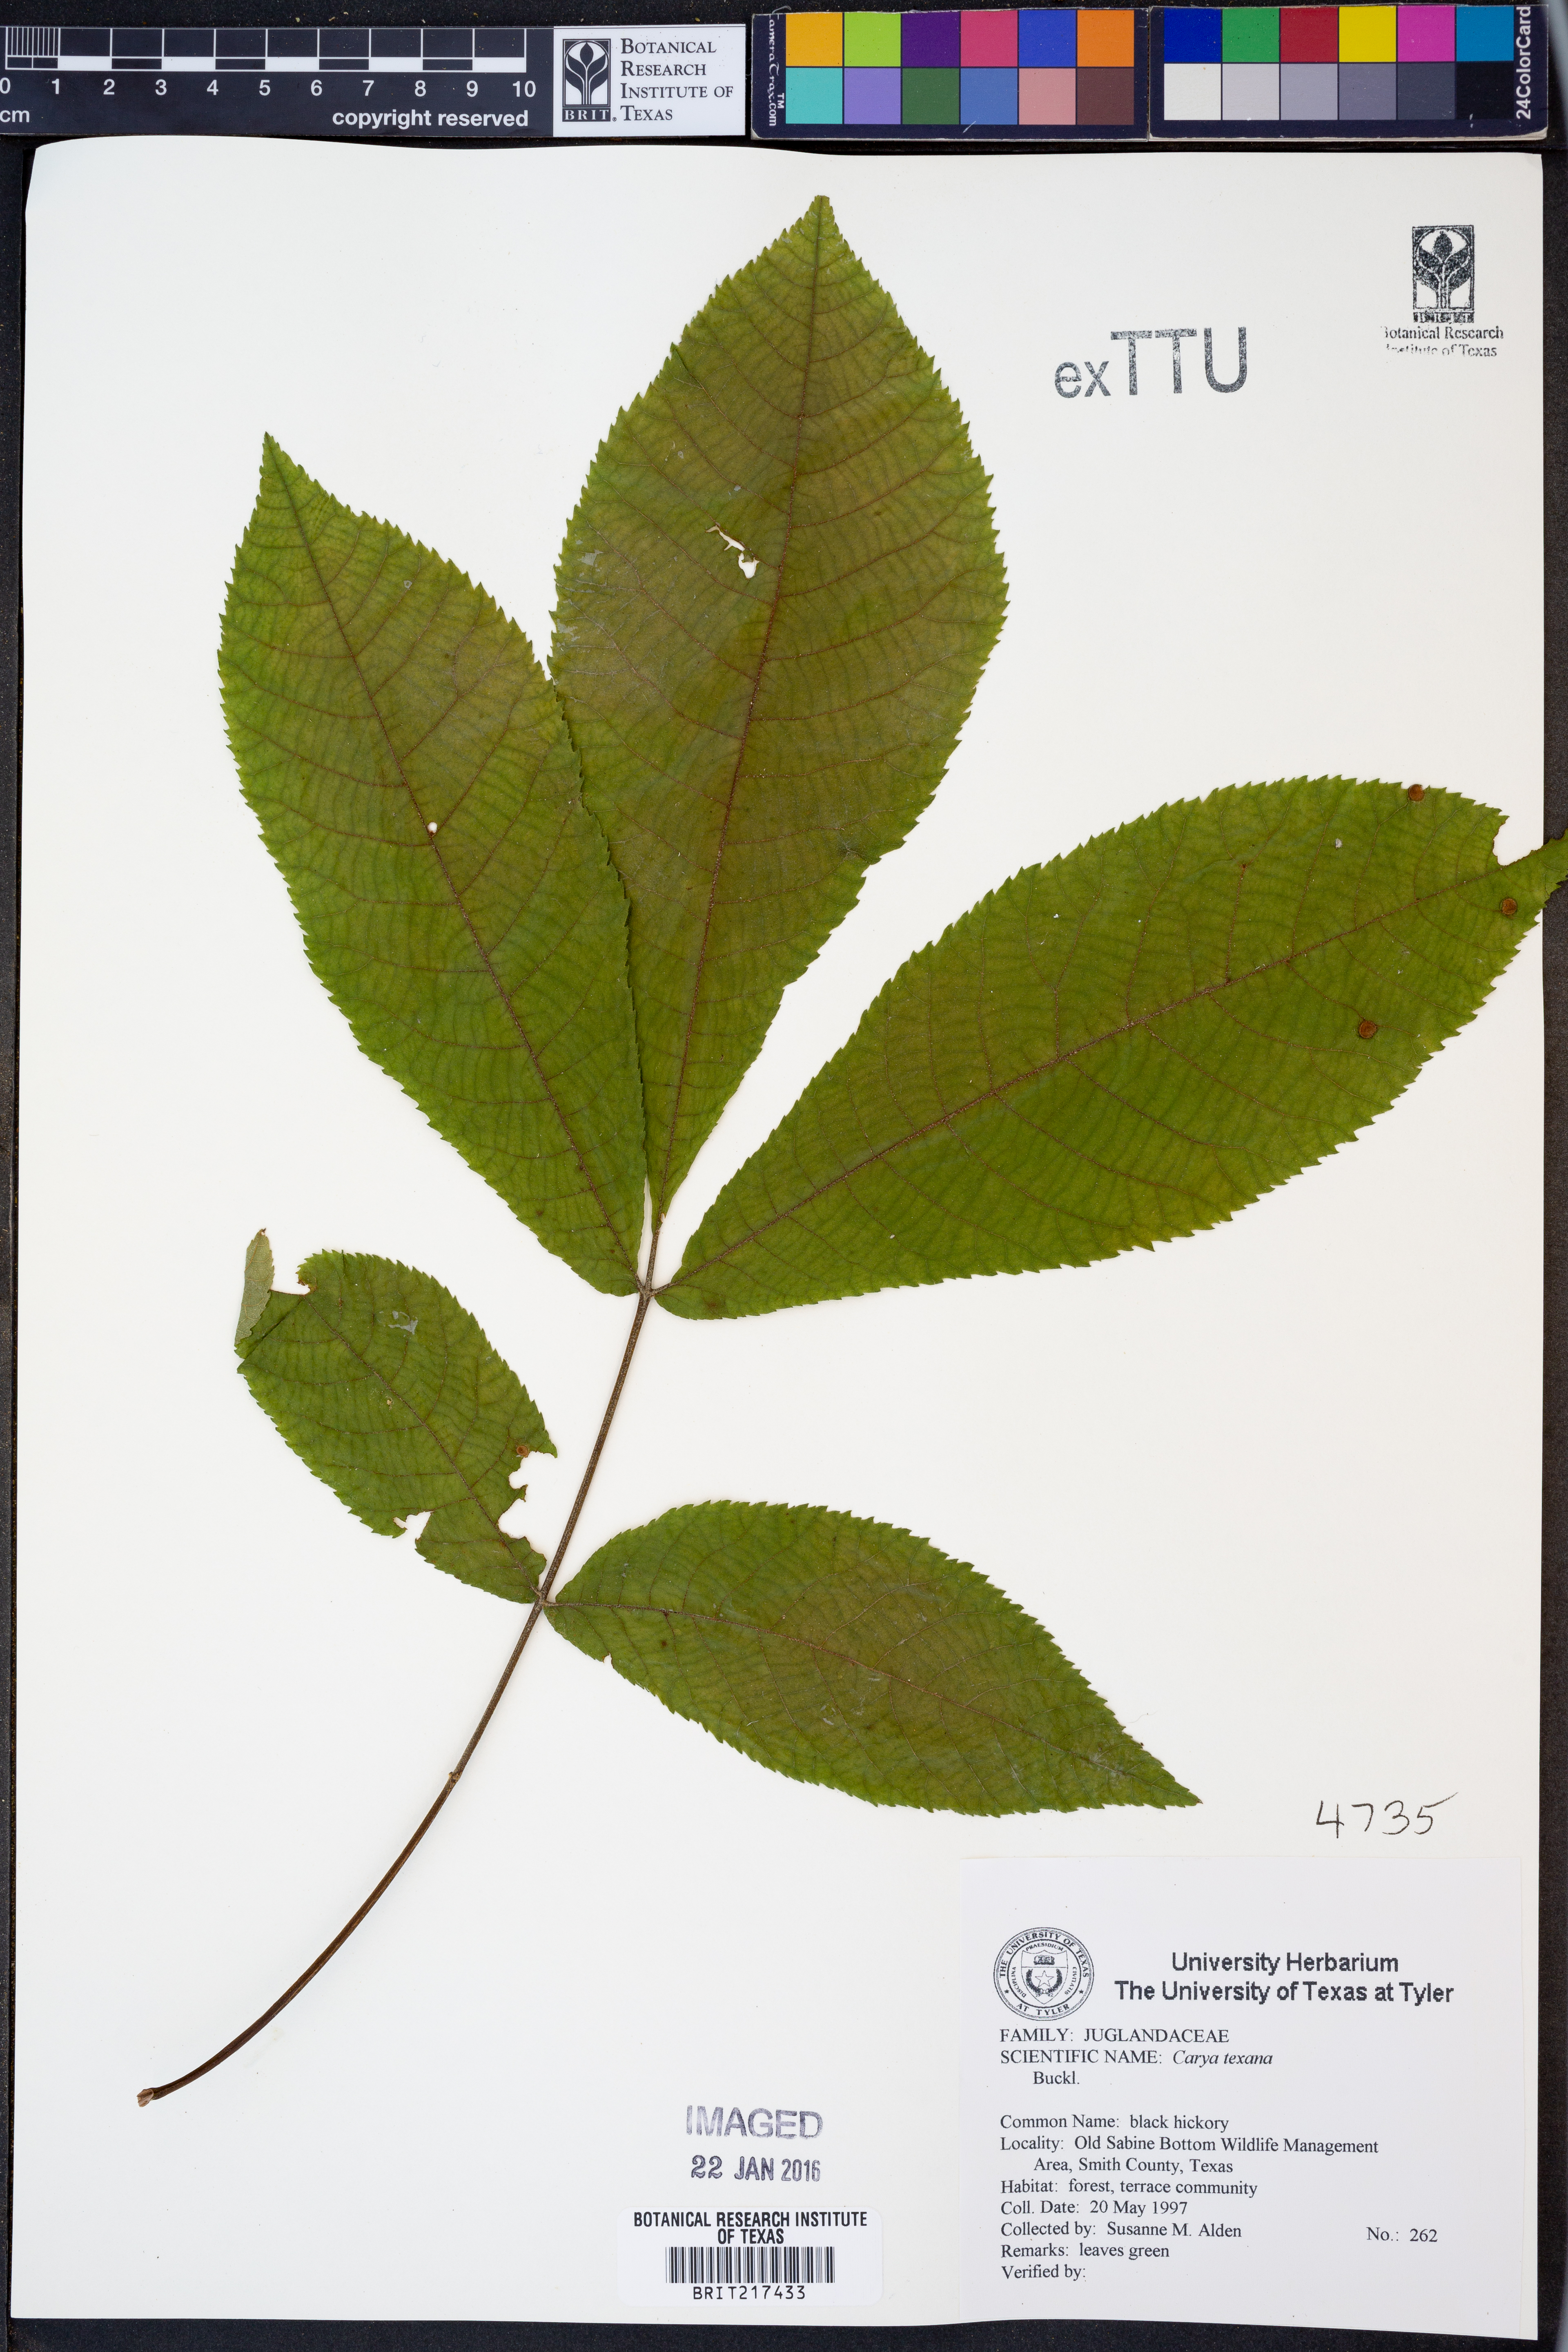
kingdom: Plantae
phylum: Tracheophyta
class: Magnoliopsida
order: Fagales
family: Juglandaceae
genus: Carya
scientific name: Carya texana
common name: Black hickory
